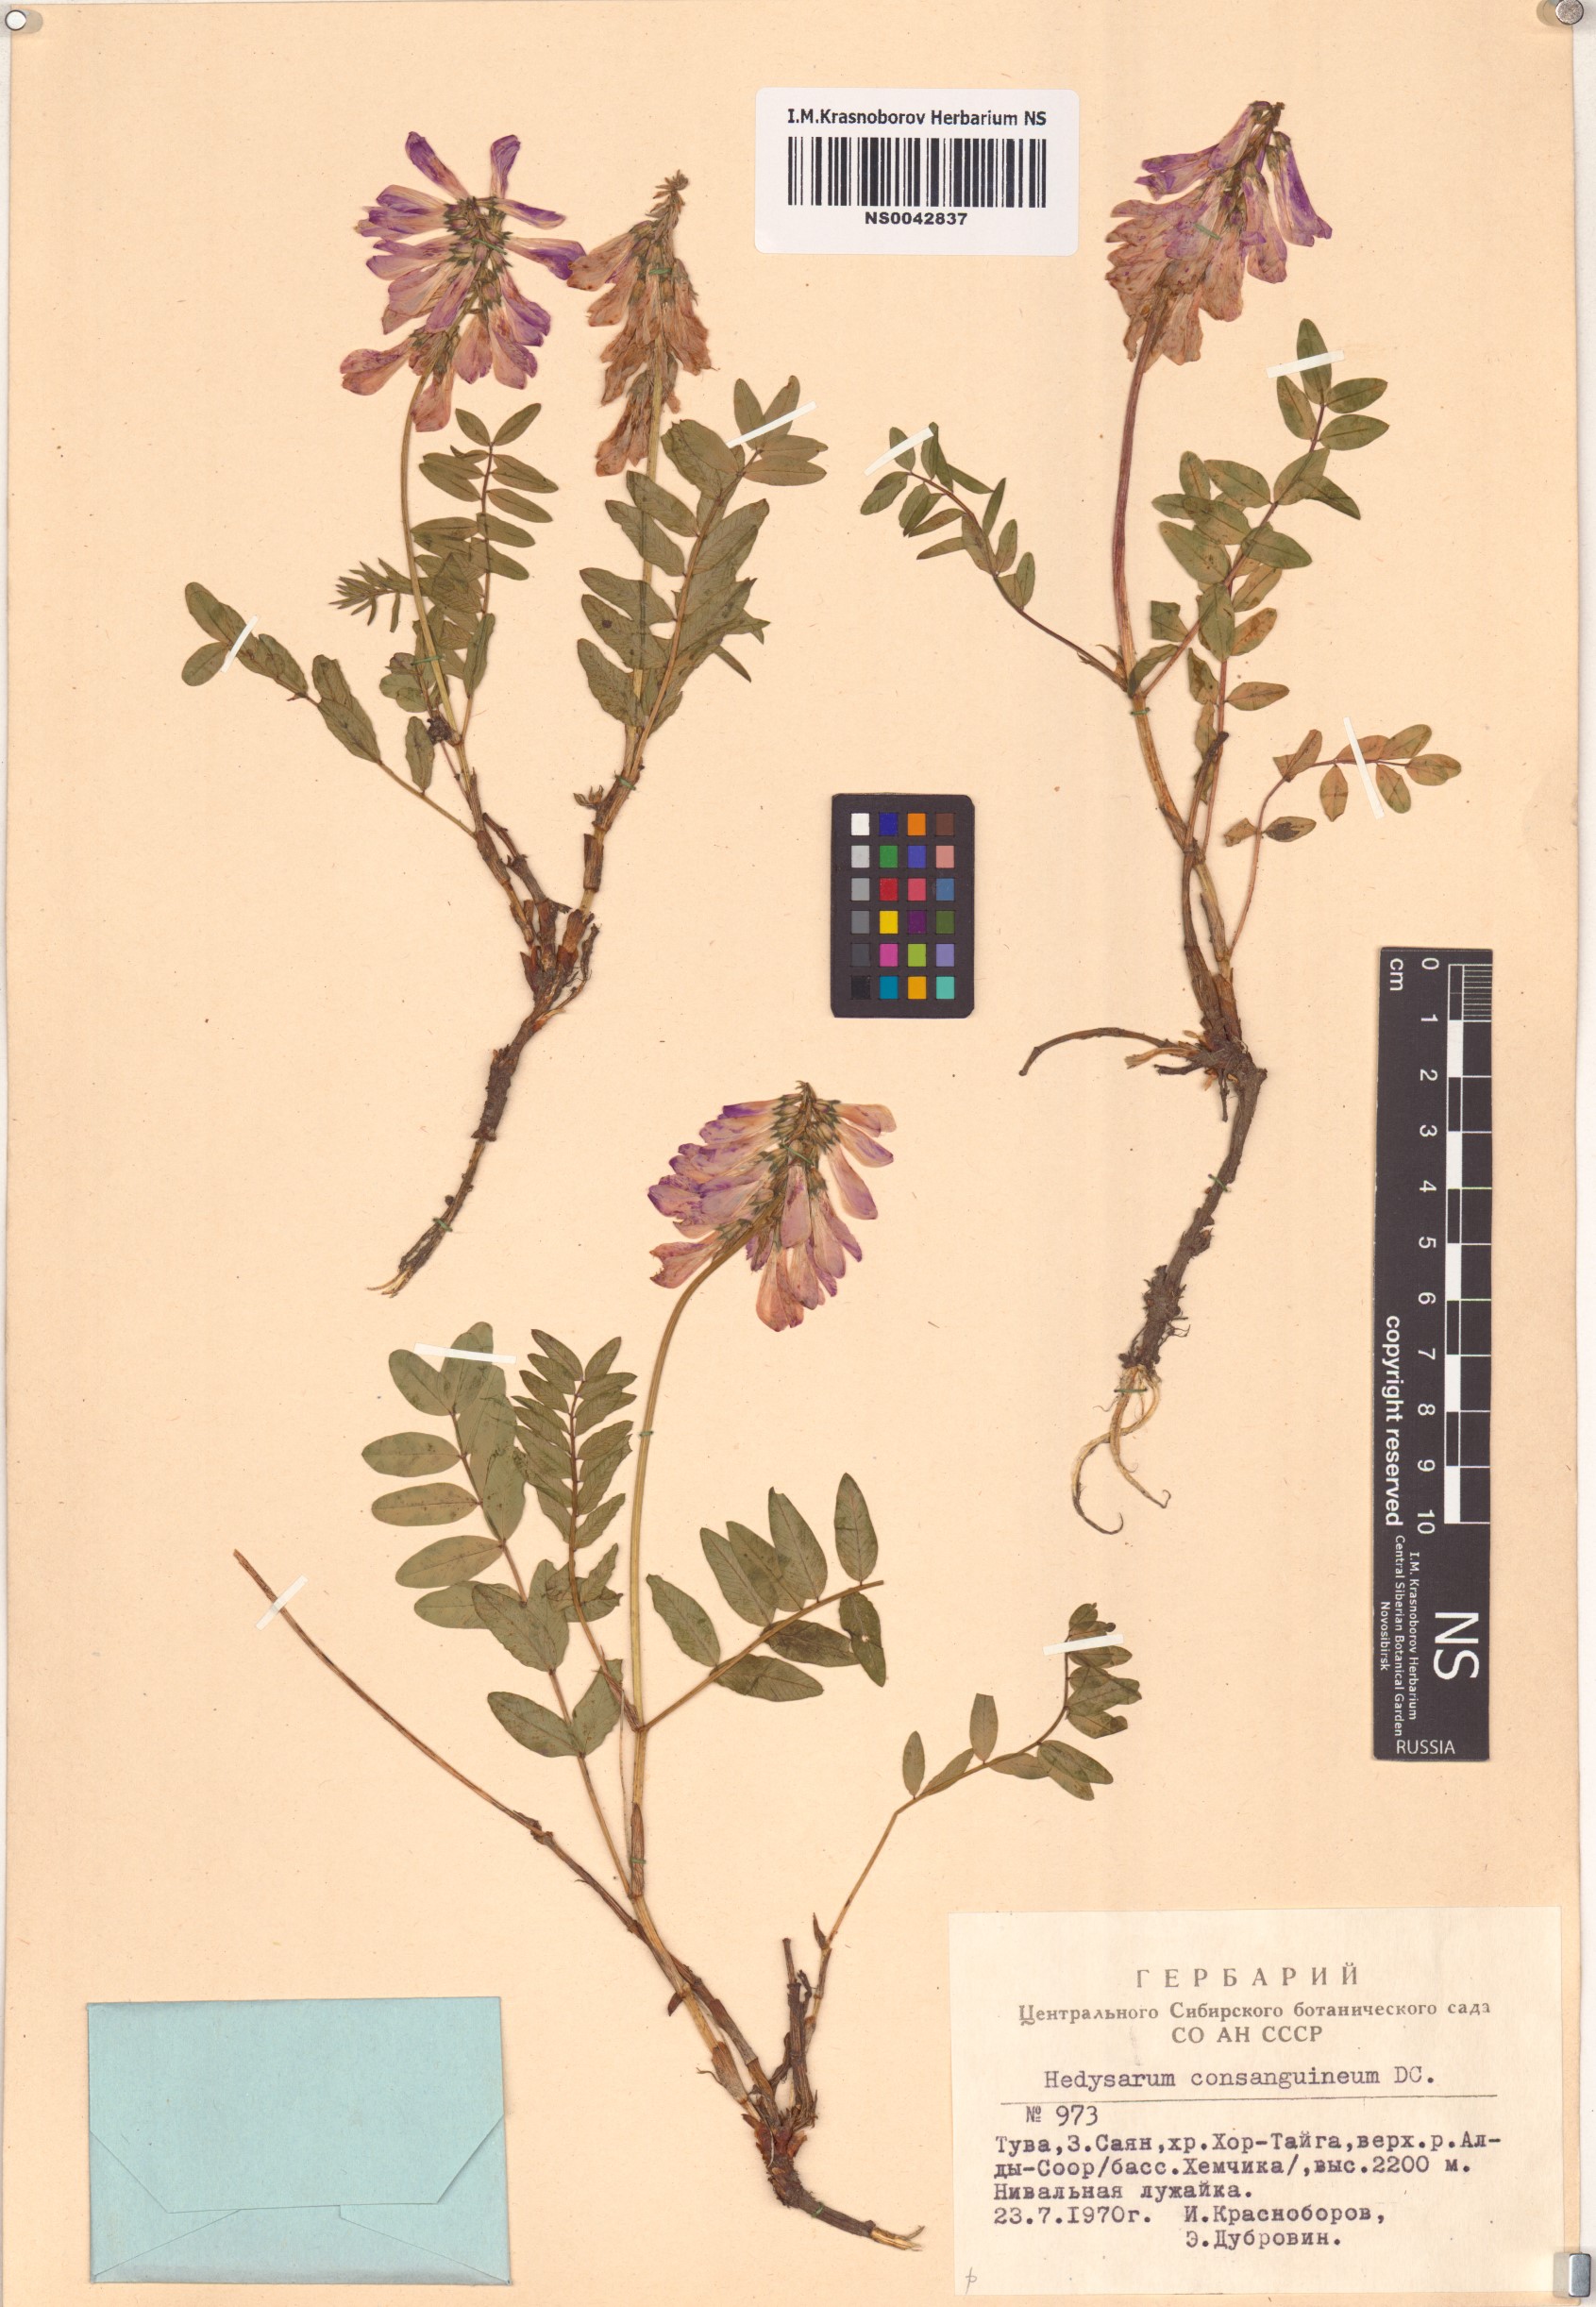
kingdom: Plantae
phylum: Tracheophyta
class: Magnoliopsida
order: Fabales
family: Fabaceae
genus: Hedysarum
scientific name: Hedysarum consanguineum
